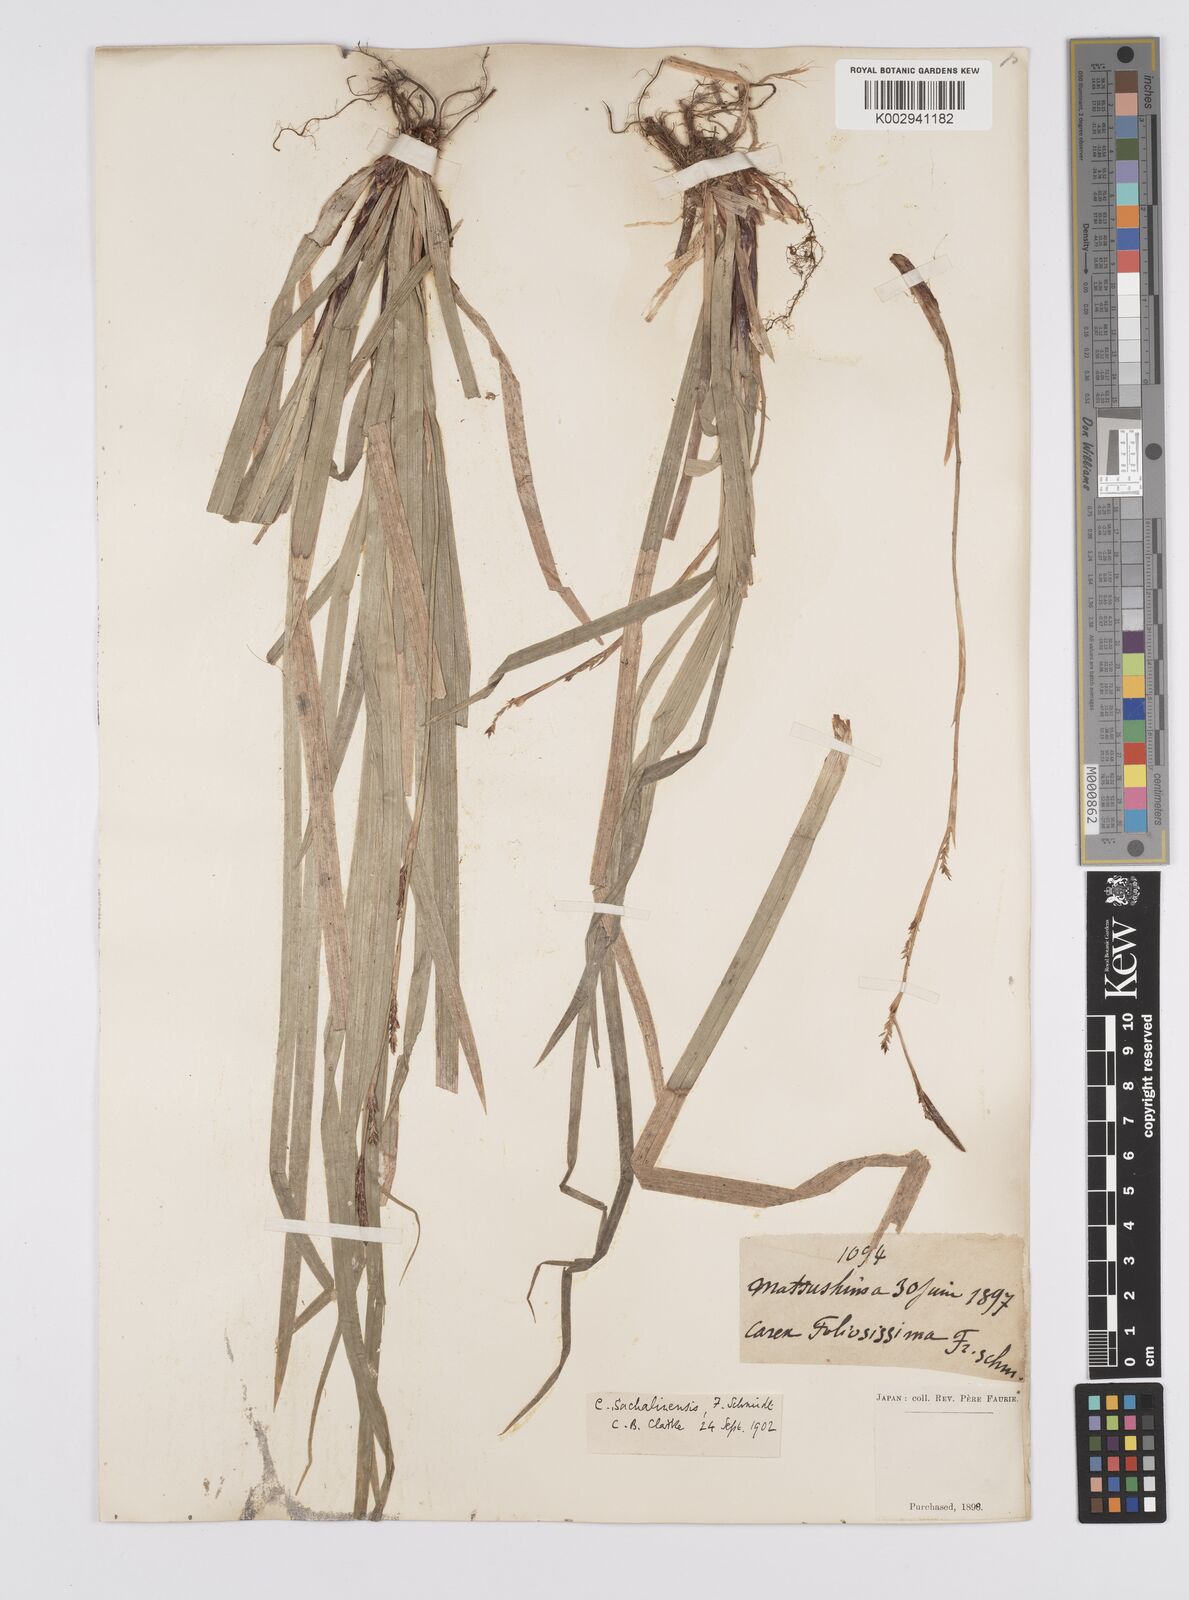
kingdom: Plantae
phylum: Tracheophyta
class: Liliopsida
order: Poales
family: Cyperaceae
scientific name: Cyperaceae
